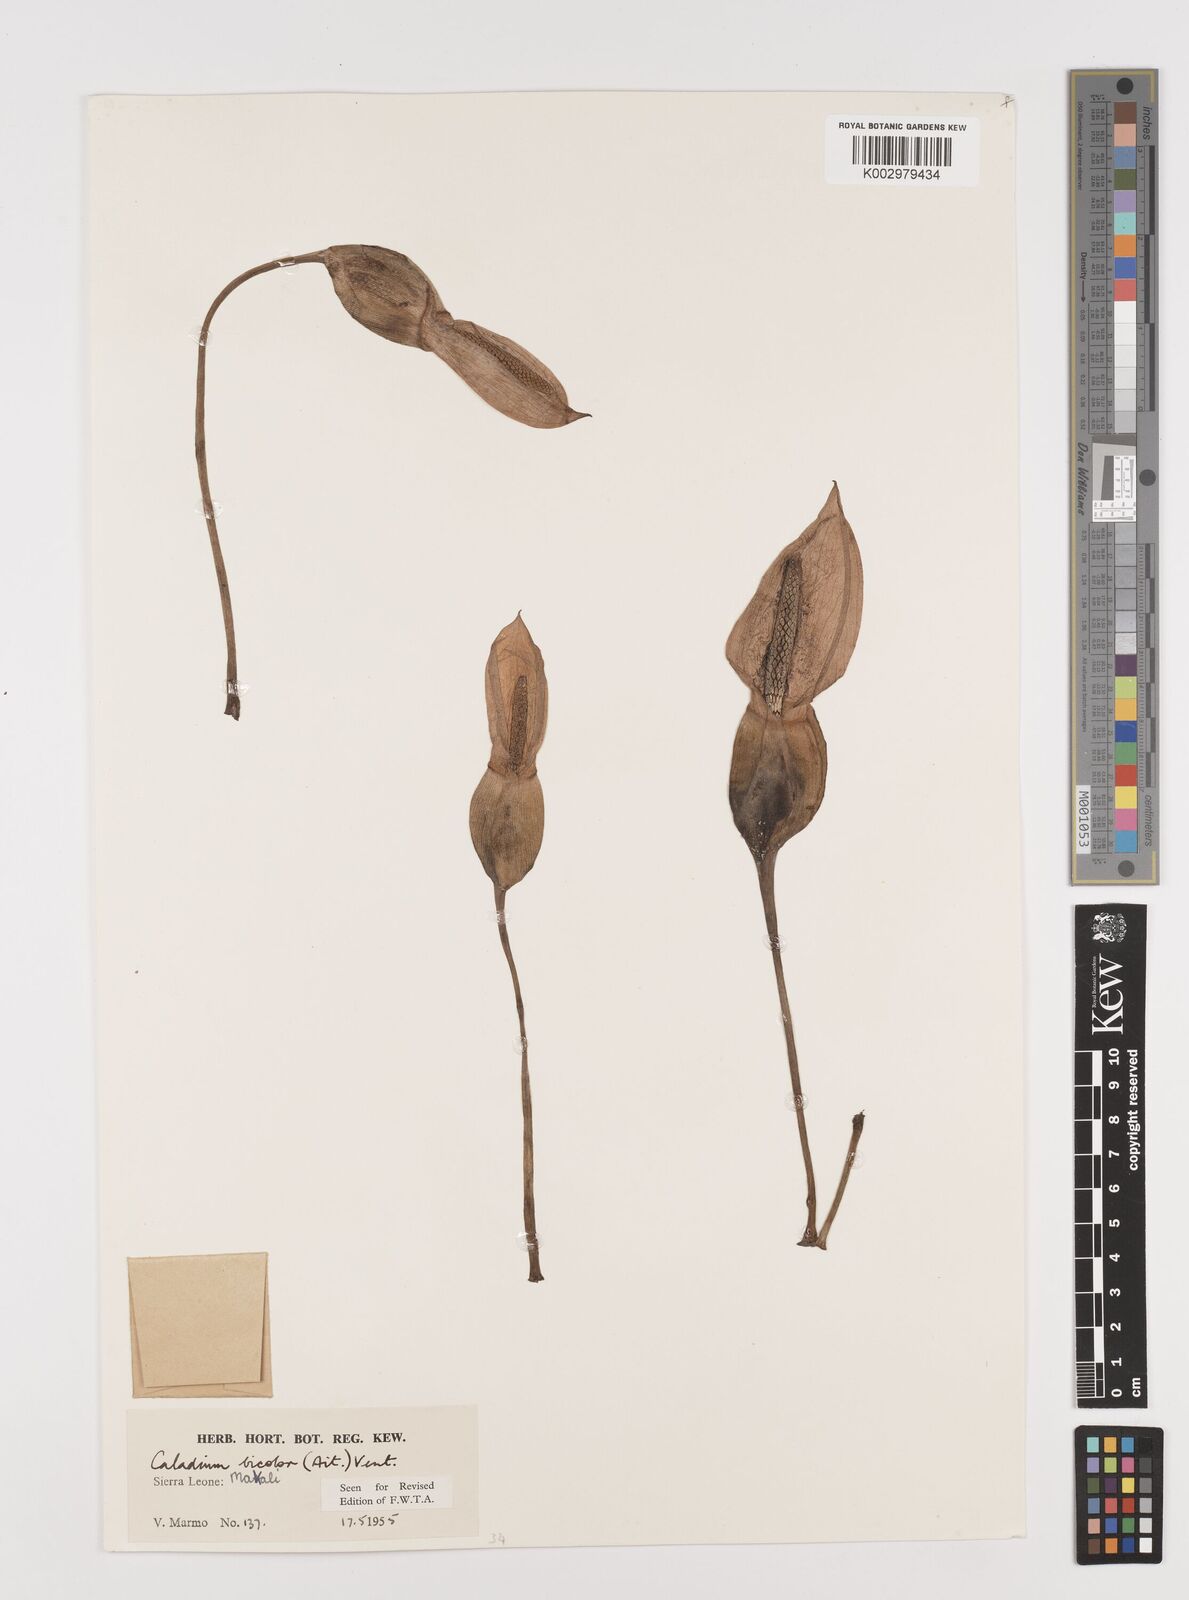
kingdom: Plantae
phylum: Tracheophyta
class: Liliopsida
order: Alismatales
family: Araceae
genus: Caladium
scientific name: Caladium bicolor
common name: Artist's pallet
